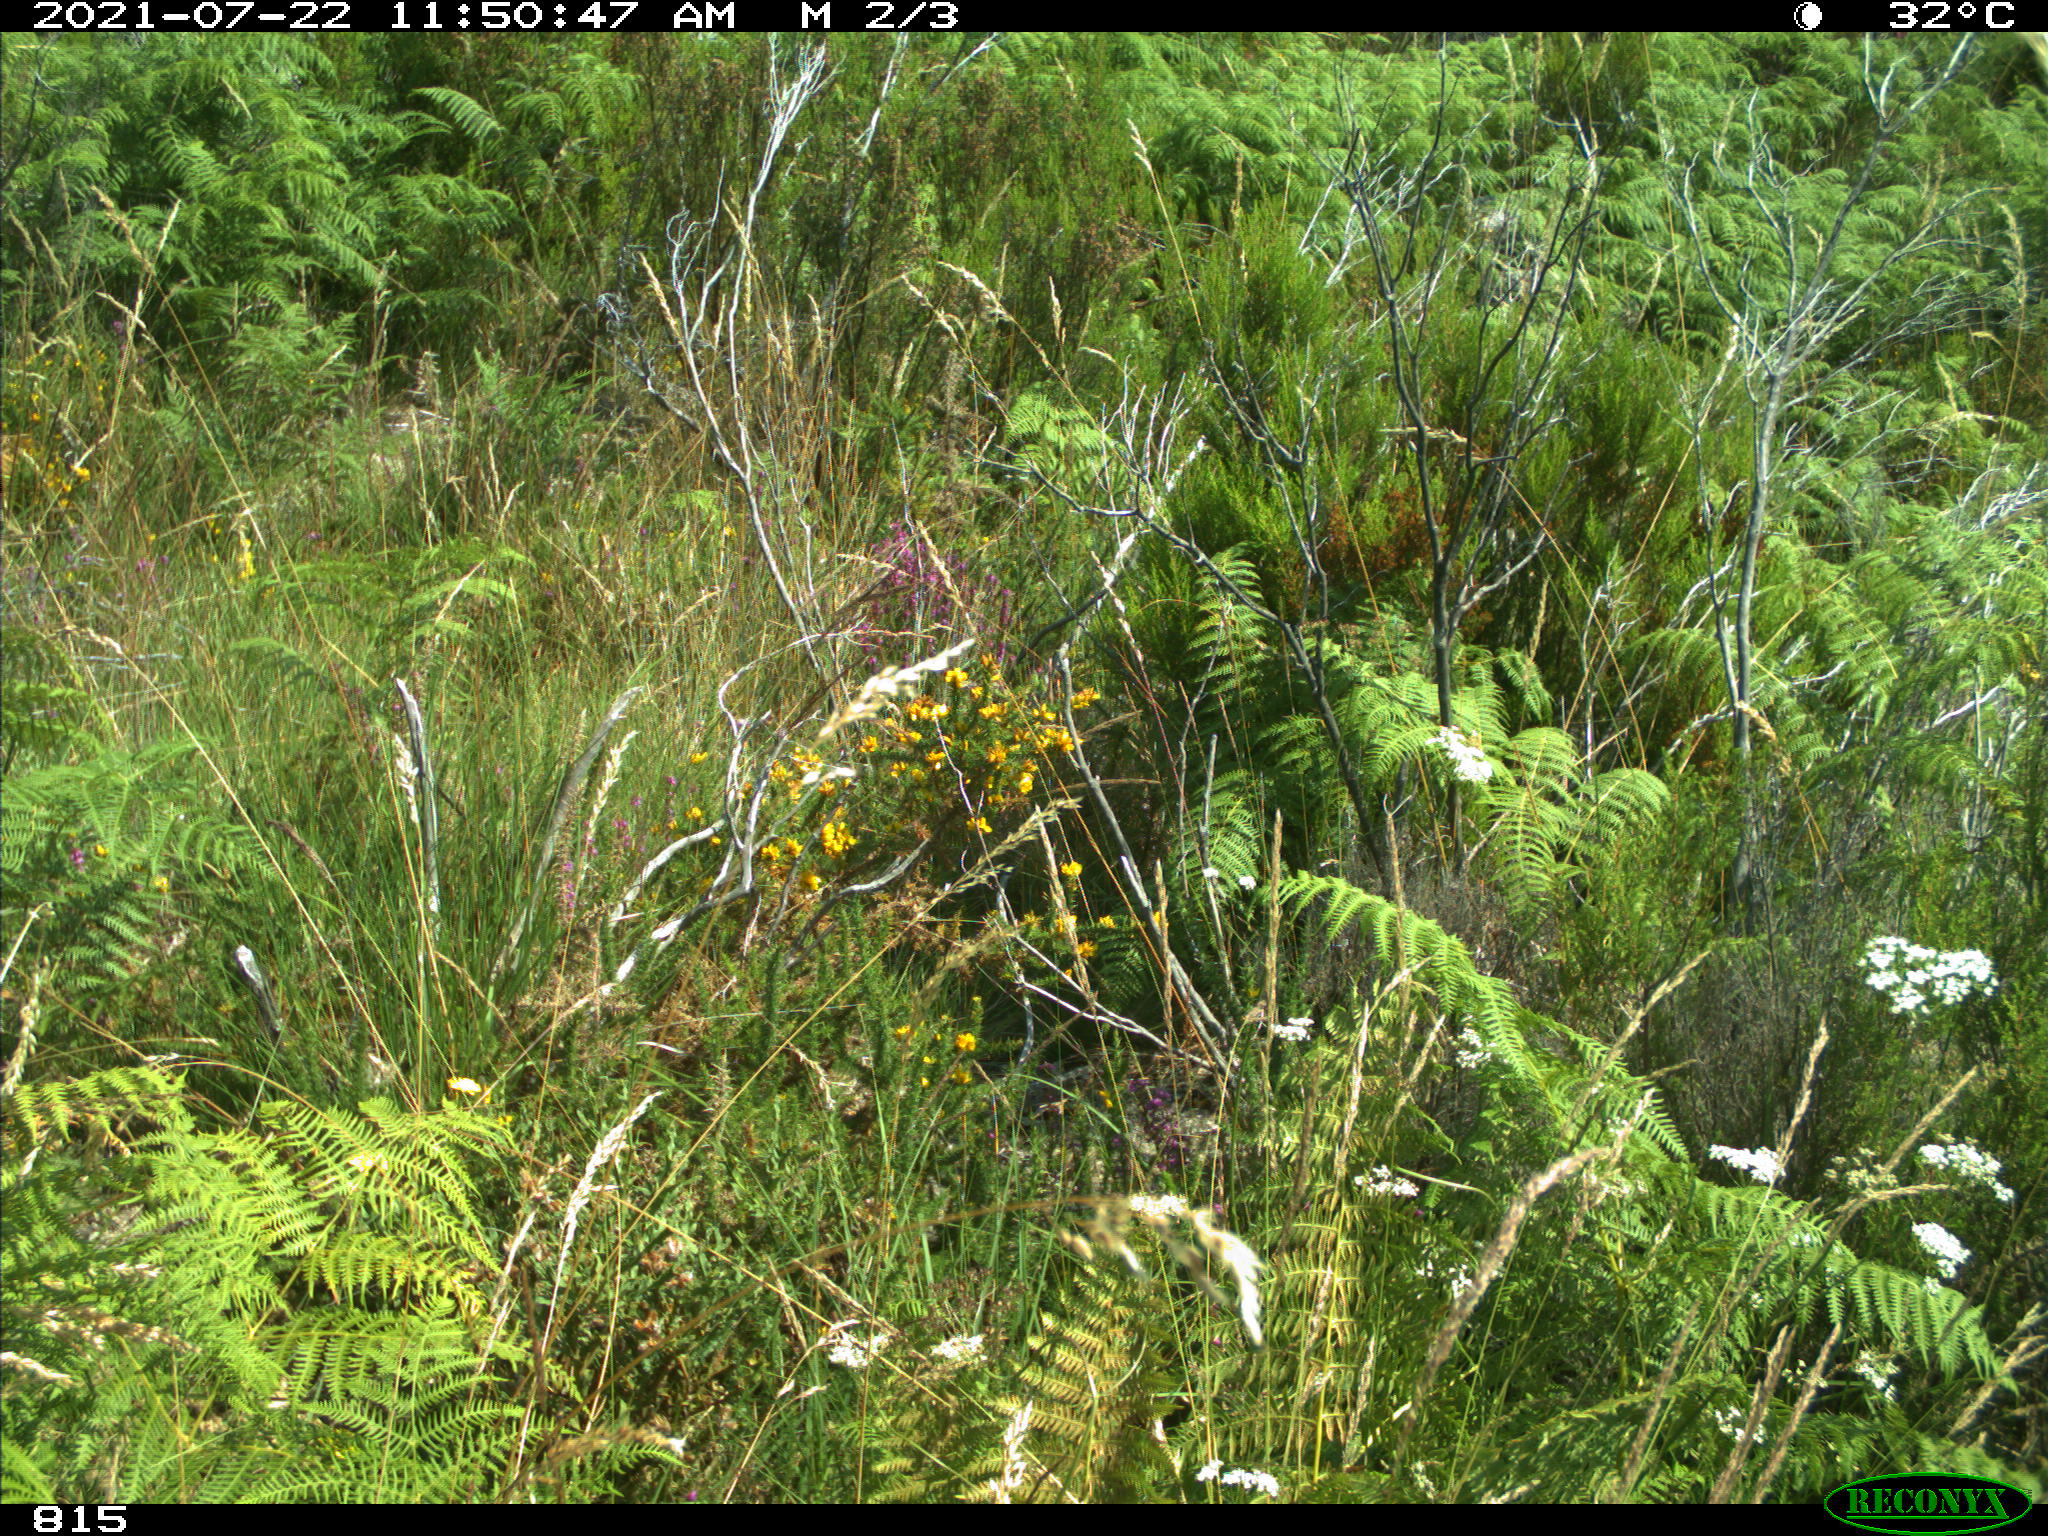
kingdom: Animalia
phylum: Chordata
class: Mammalia
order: Artiodactyla
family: Cervidae
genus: Capreolus
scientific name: Capreolus capreolus
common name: Western roe deer
